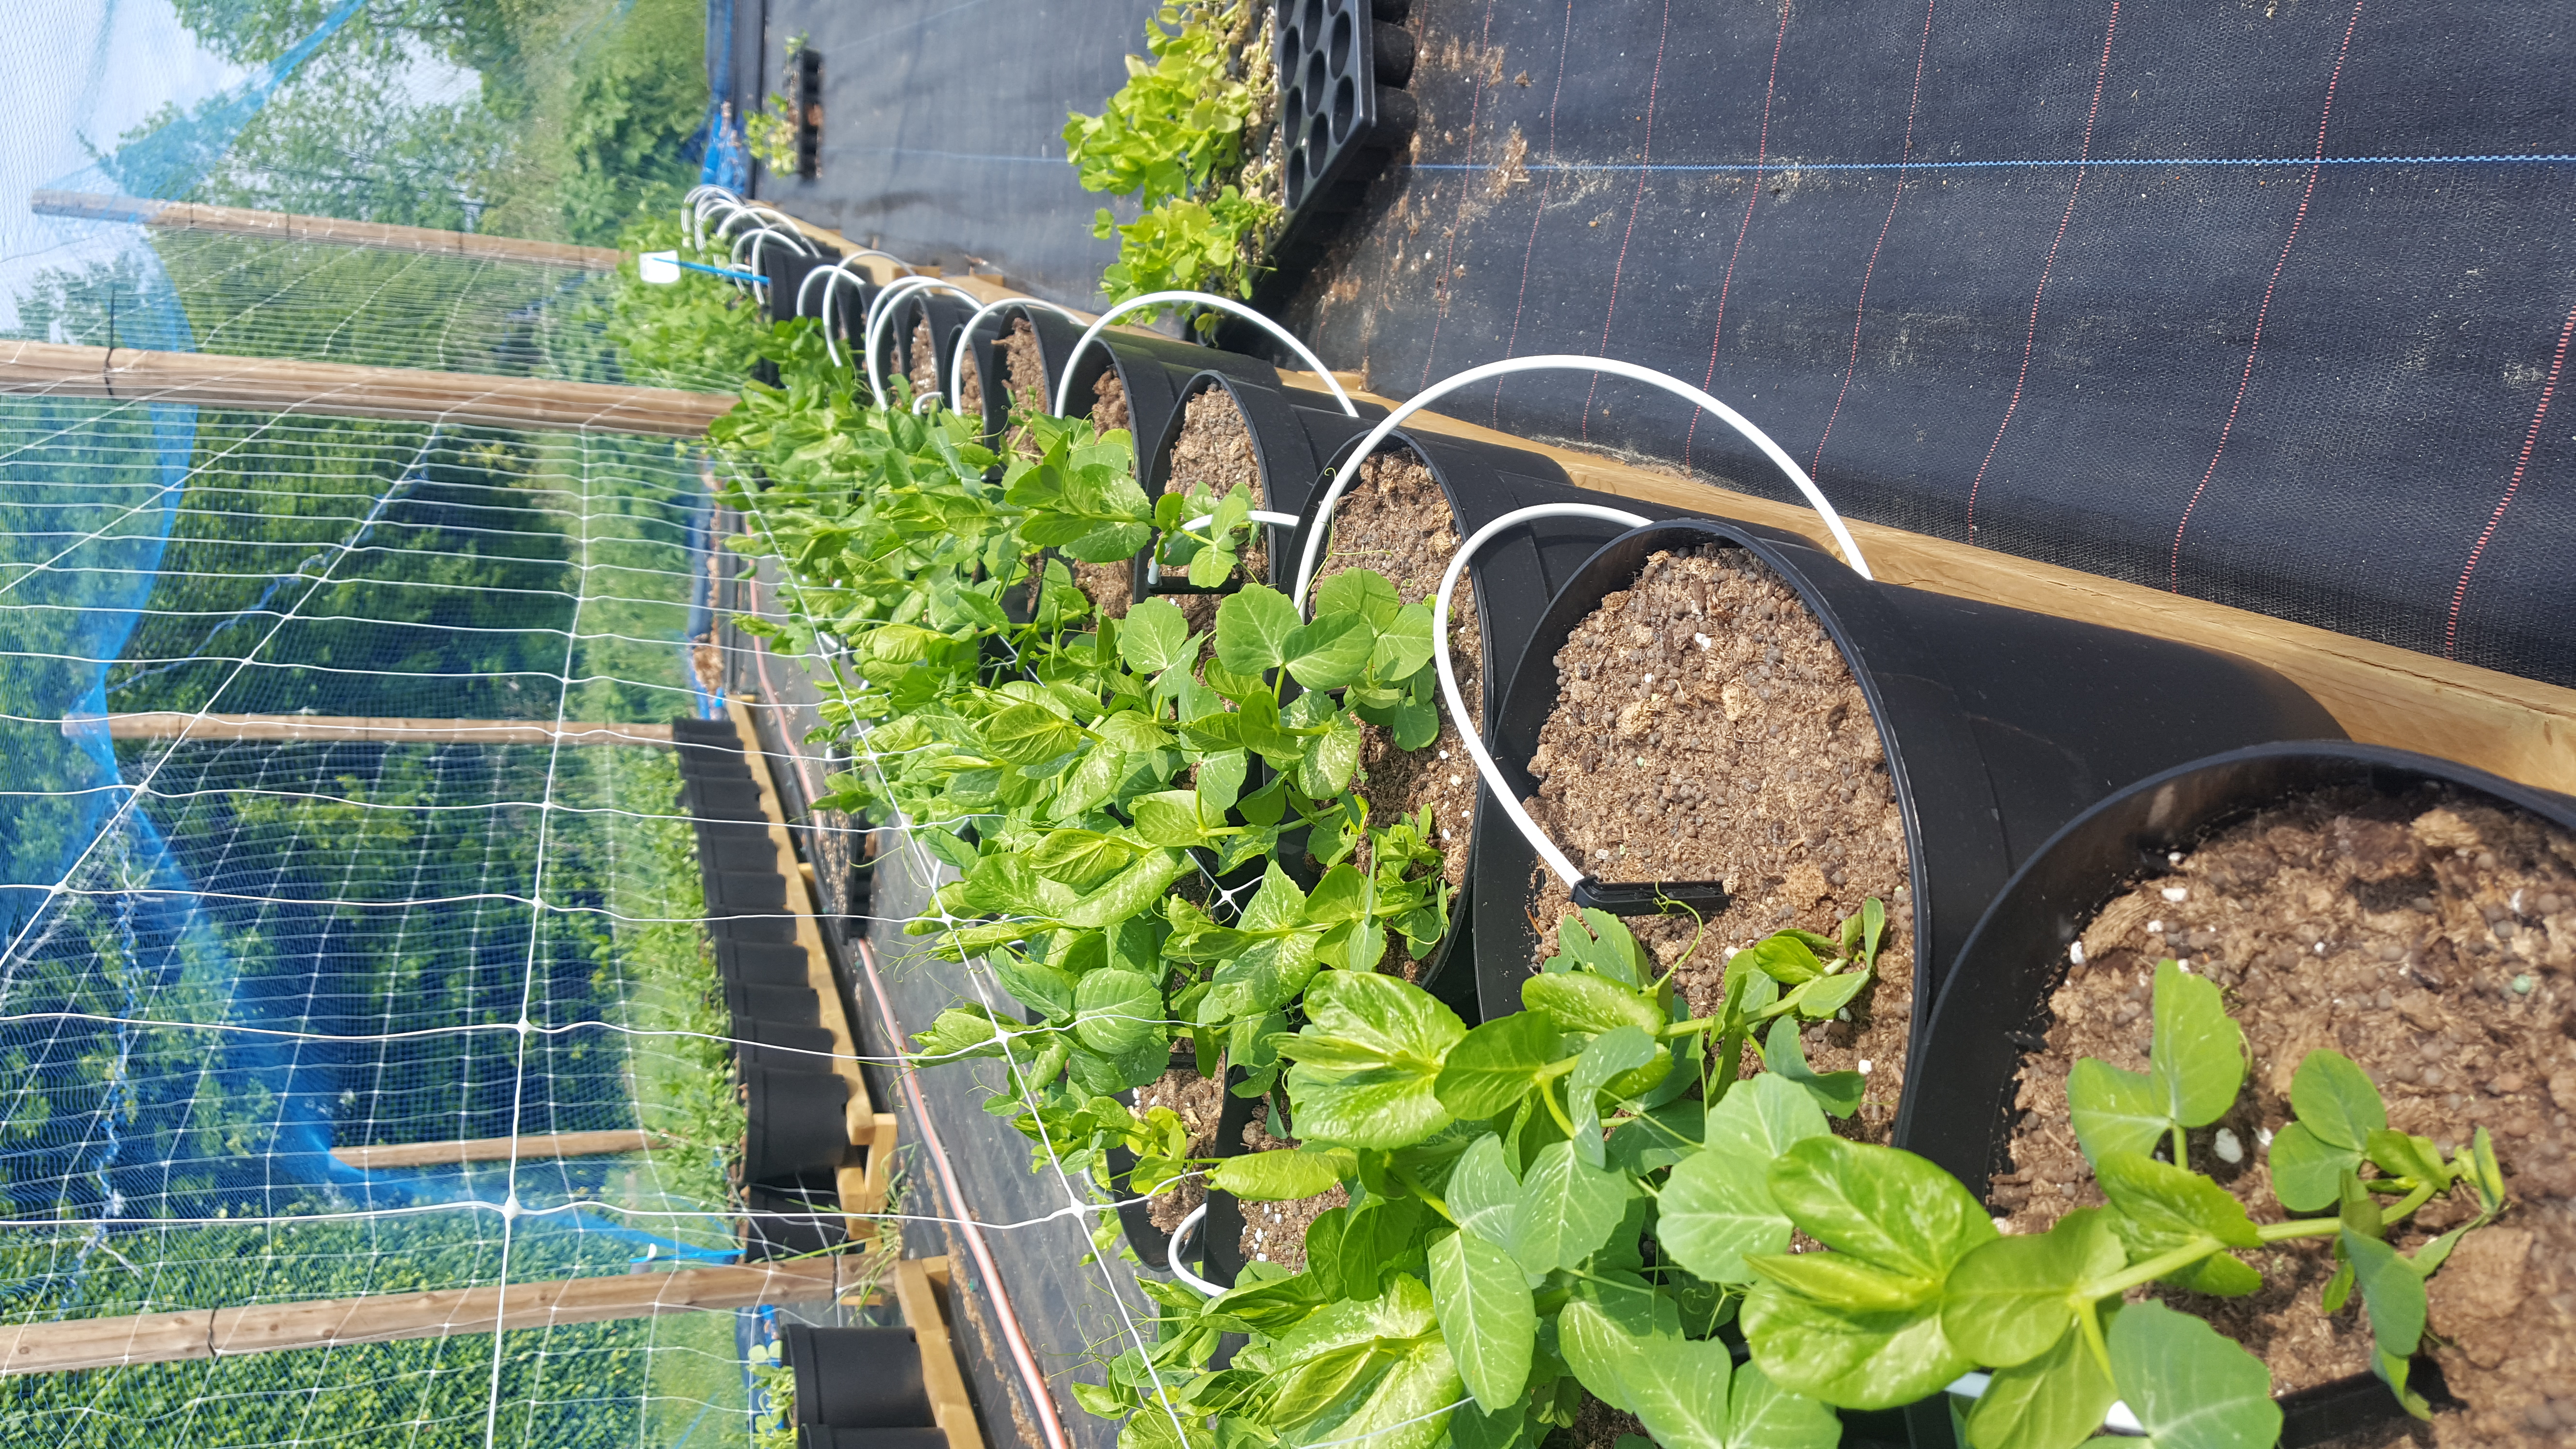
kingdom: Plantae
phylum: Tracheophyta
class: Magnoliopsida
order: Fabales
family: Fabaceae
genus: Lathyrus
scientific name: Lathyrus oleraceus
